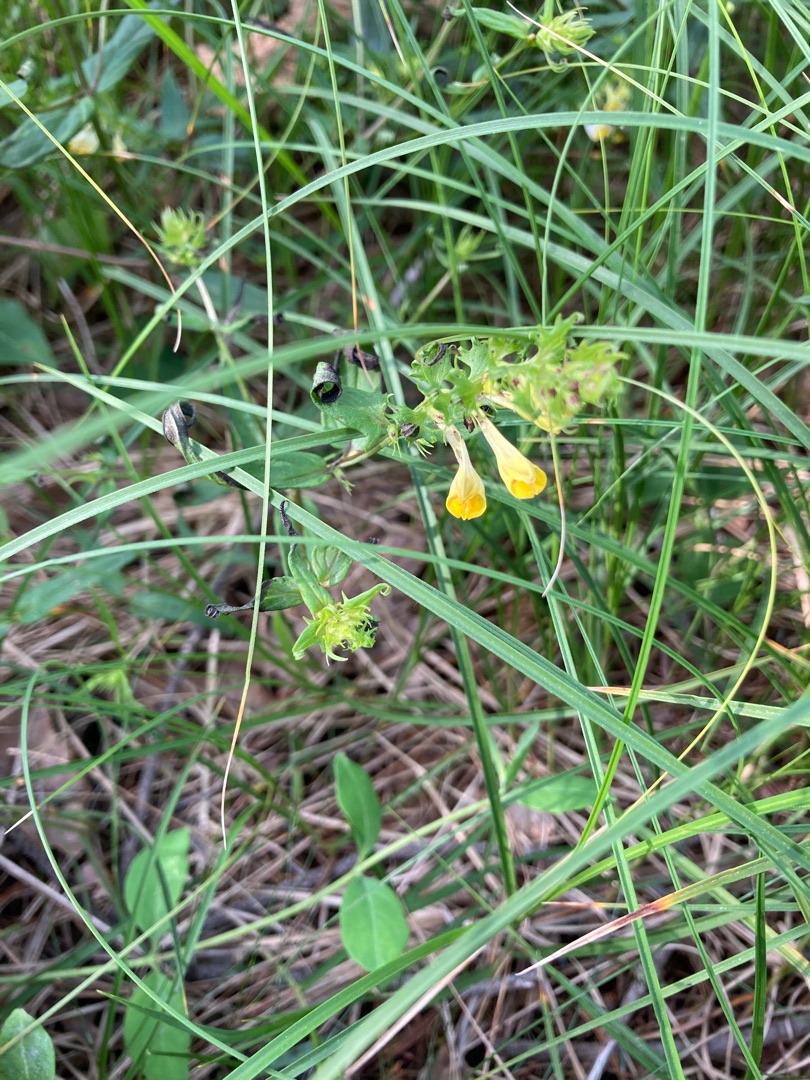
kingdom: Plantae
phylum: Tracheophyta
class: Magnoliopsida
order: Lamiales
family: Orobanchaceae
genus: Melampyrum
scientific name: Melampyrum pratense
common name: Almindelig kohvede
